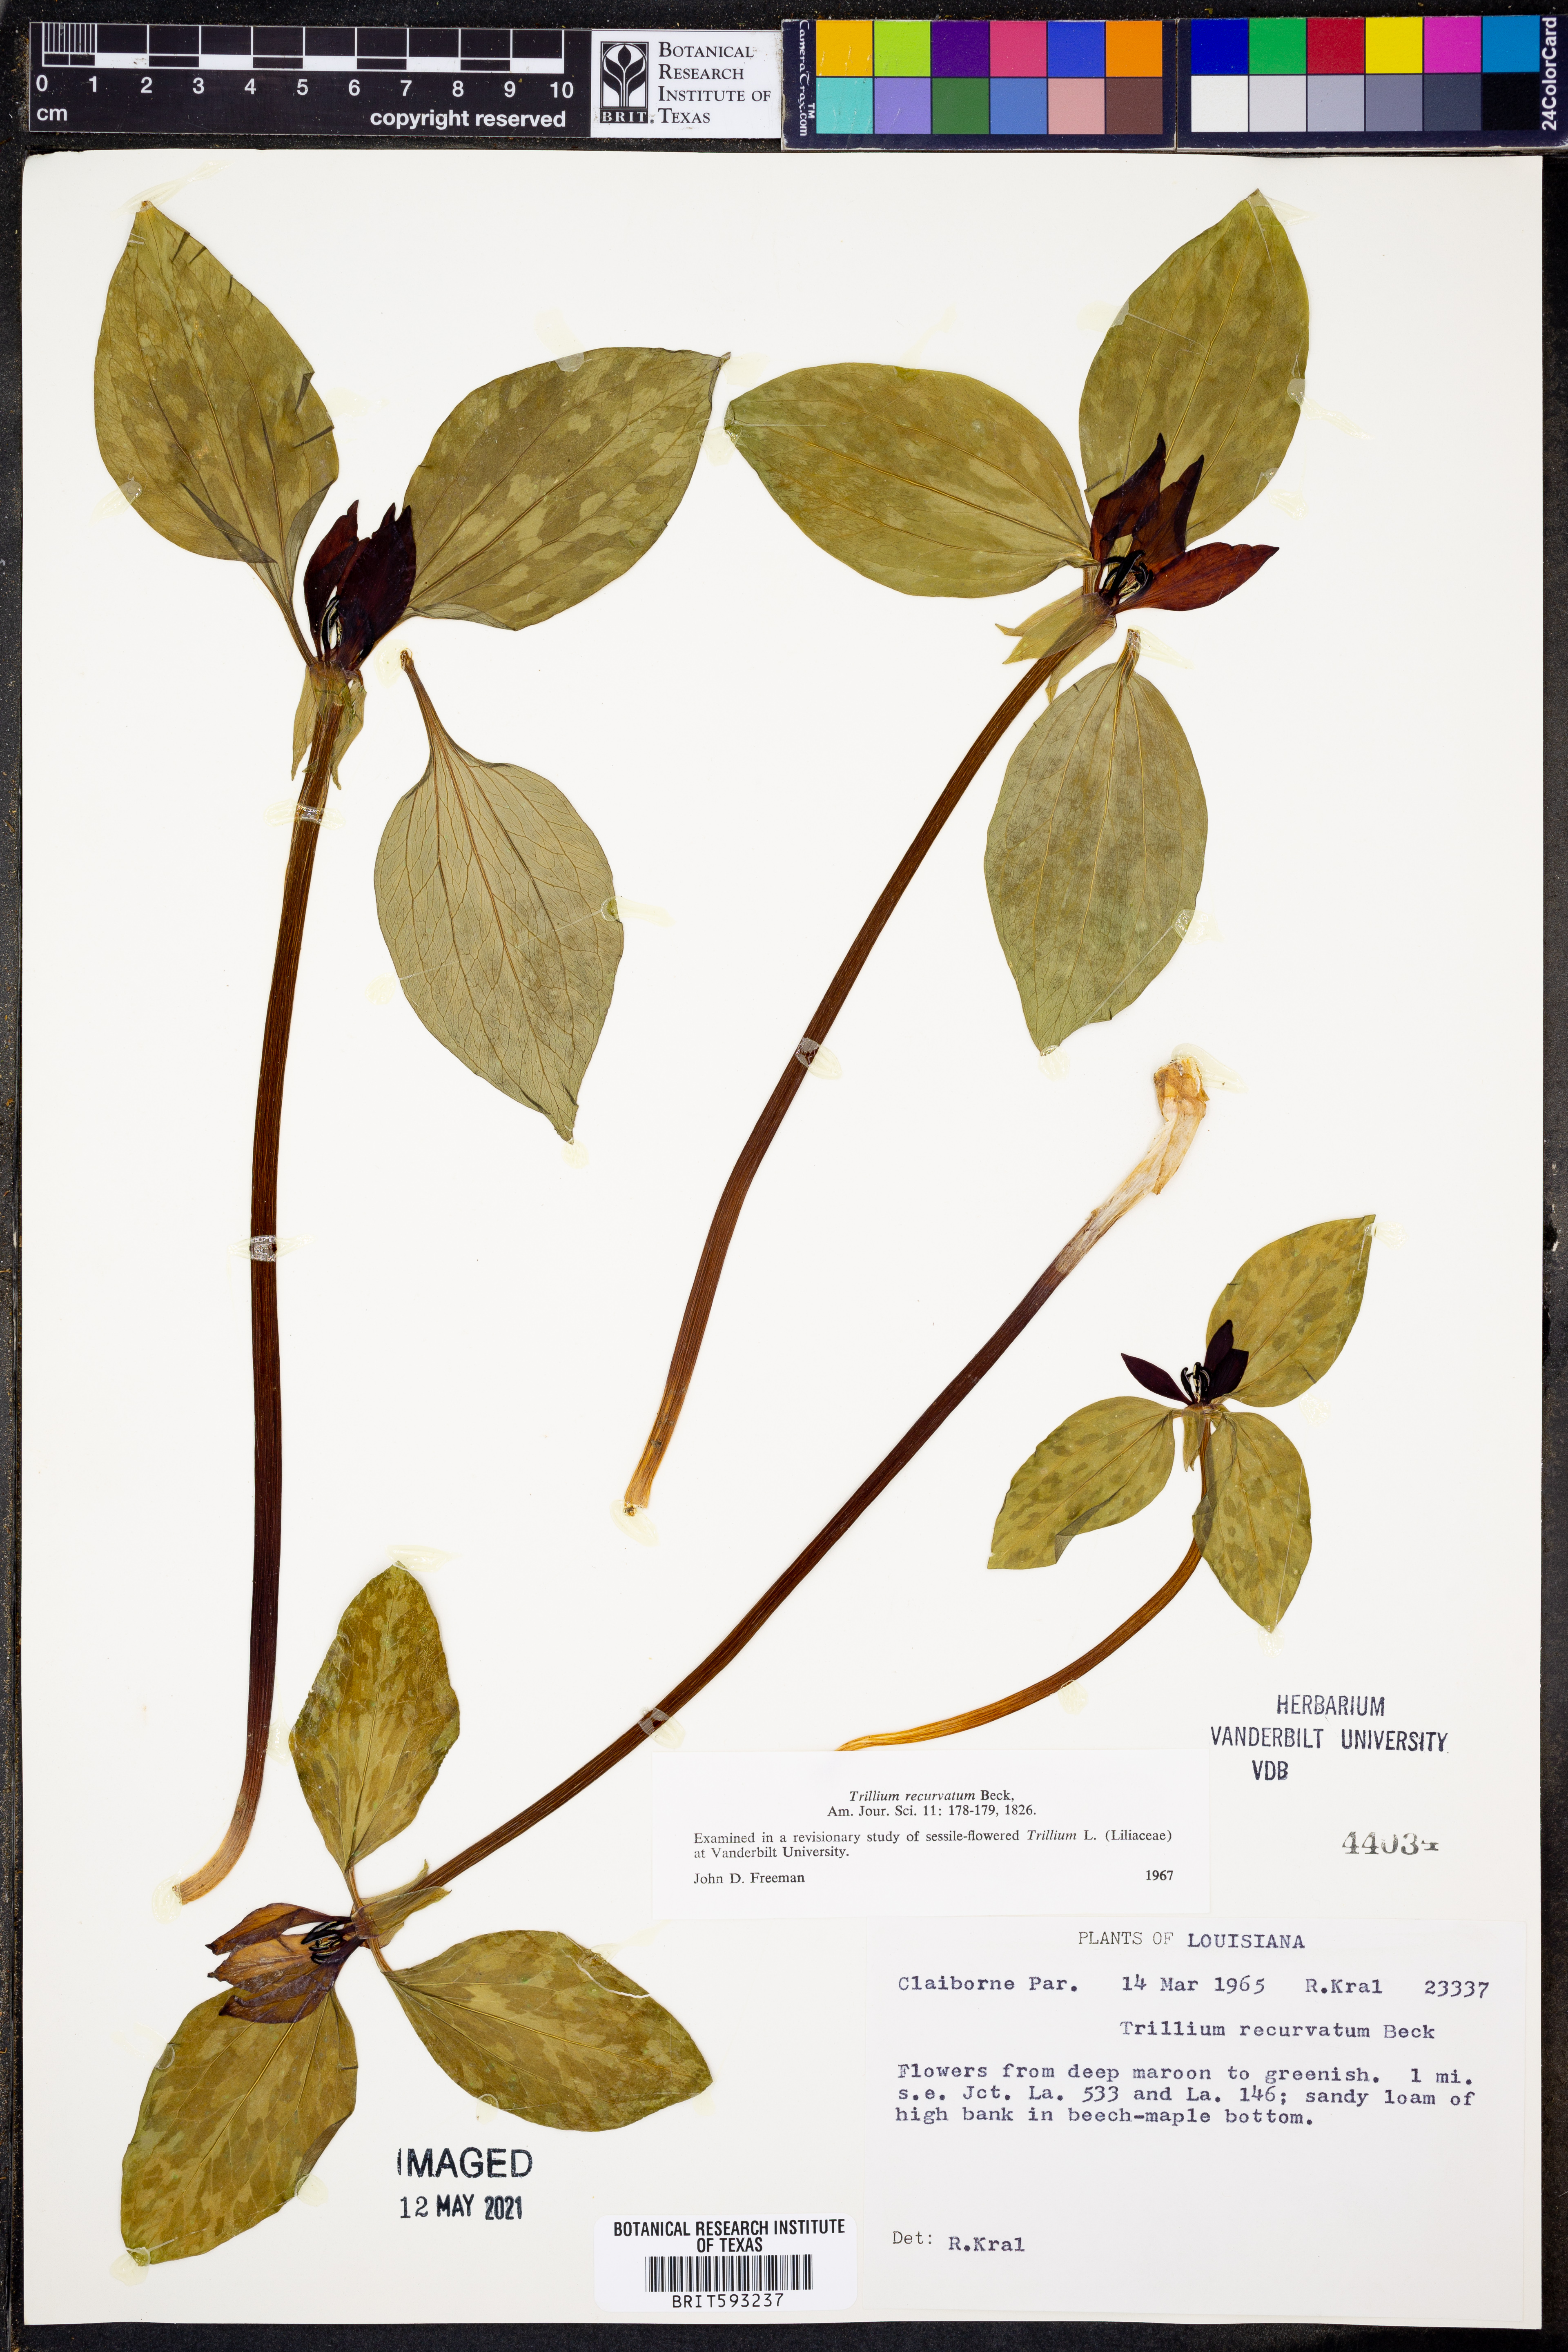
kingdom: Plantae
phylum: Tracheophyta
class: Liliopsida
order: Liliales
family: Melanthiaceae
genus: Trillium
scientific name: Trillium recurvatum
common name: Bloody butcher
